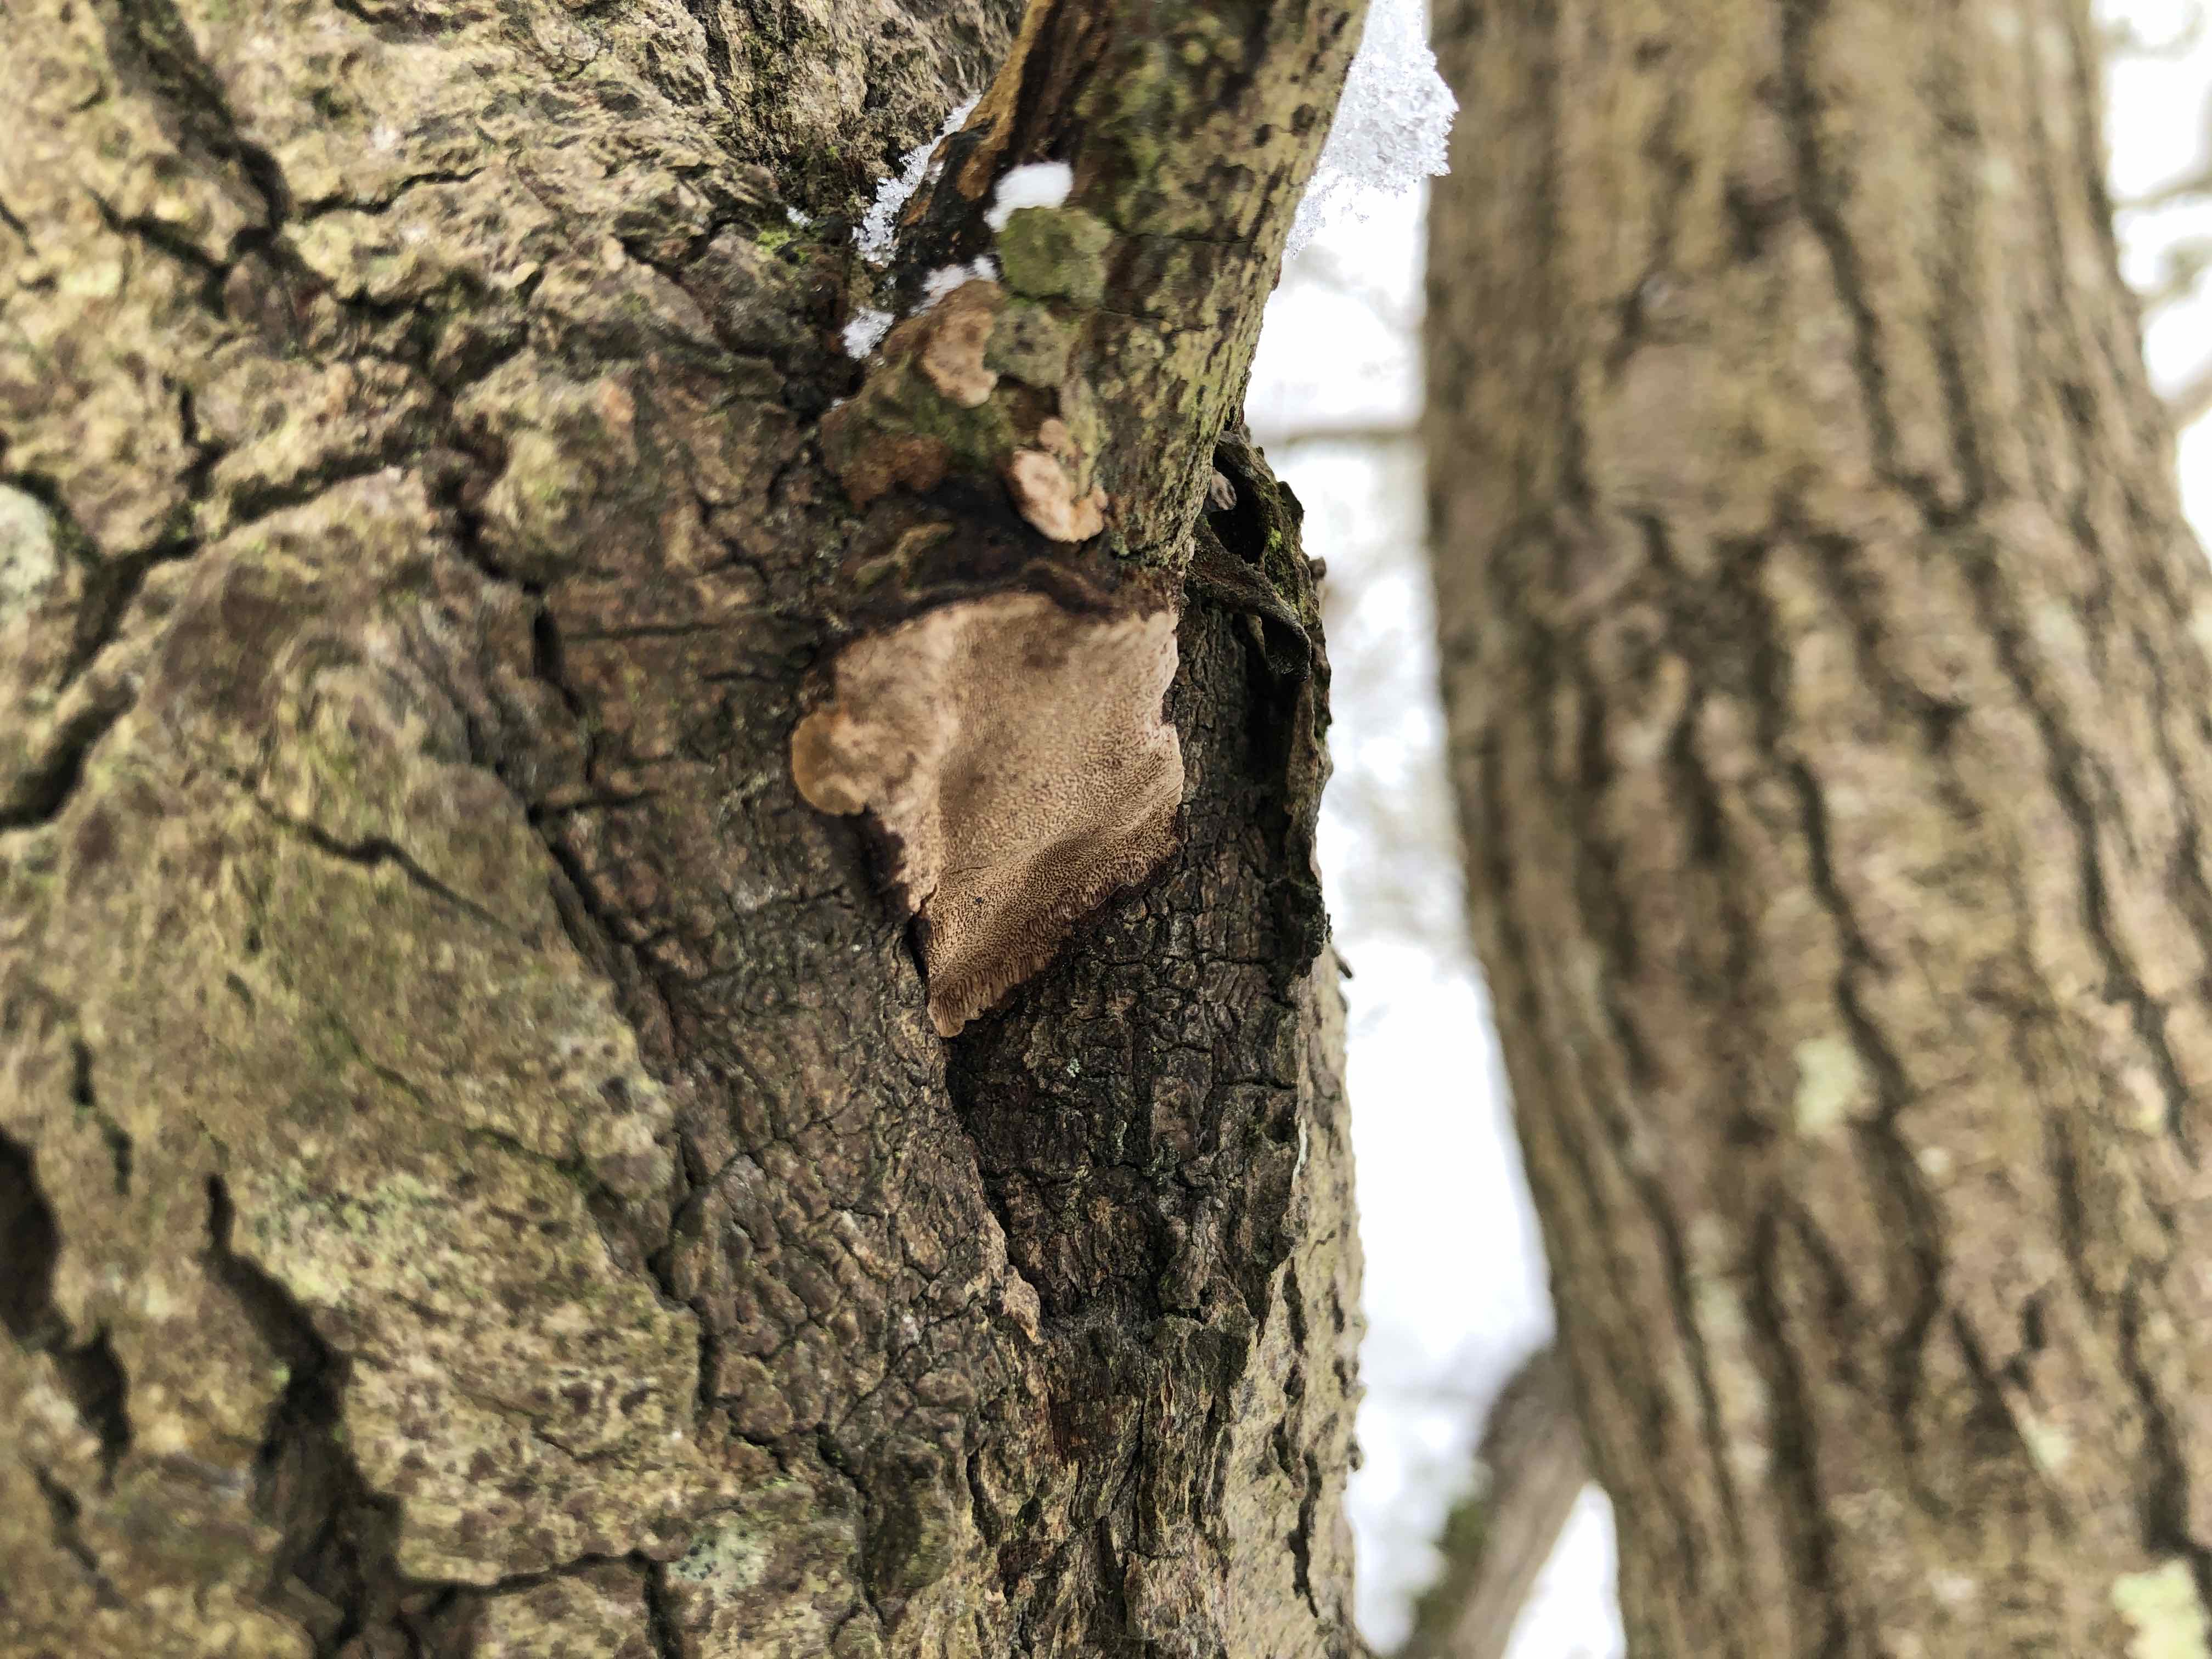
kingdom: Fungi
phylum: Basidiomycota
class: Agaricomycetes
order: Hymenochaetales
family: Hymenochaetaceae
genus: Phellinopsis
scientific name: Phellinopsis conchata
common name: pile-ildporesvamp
